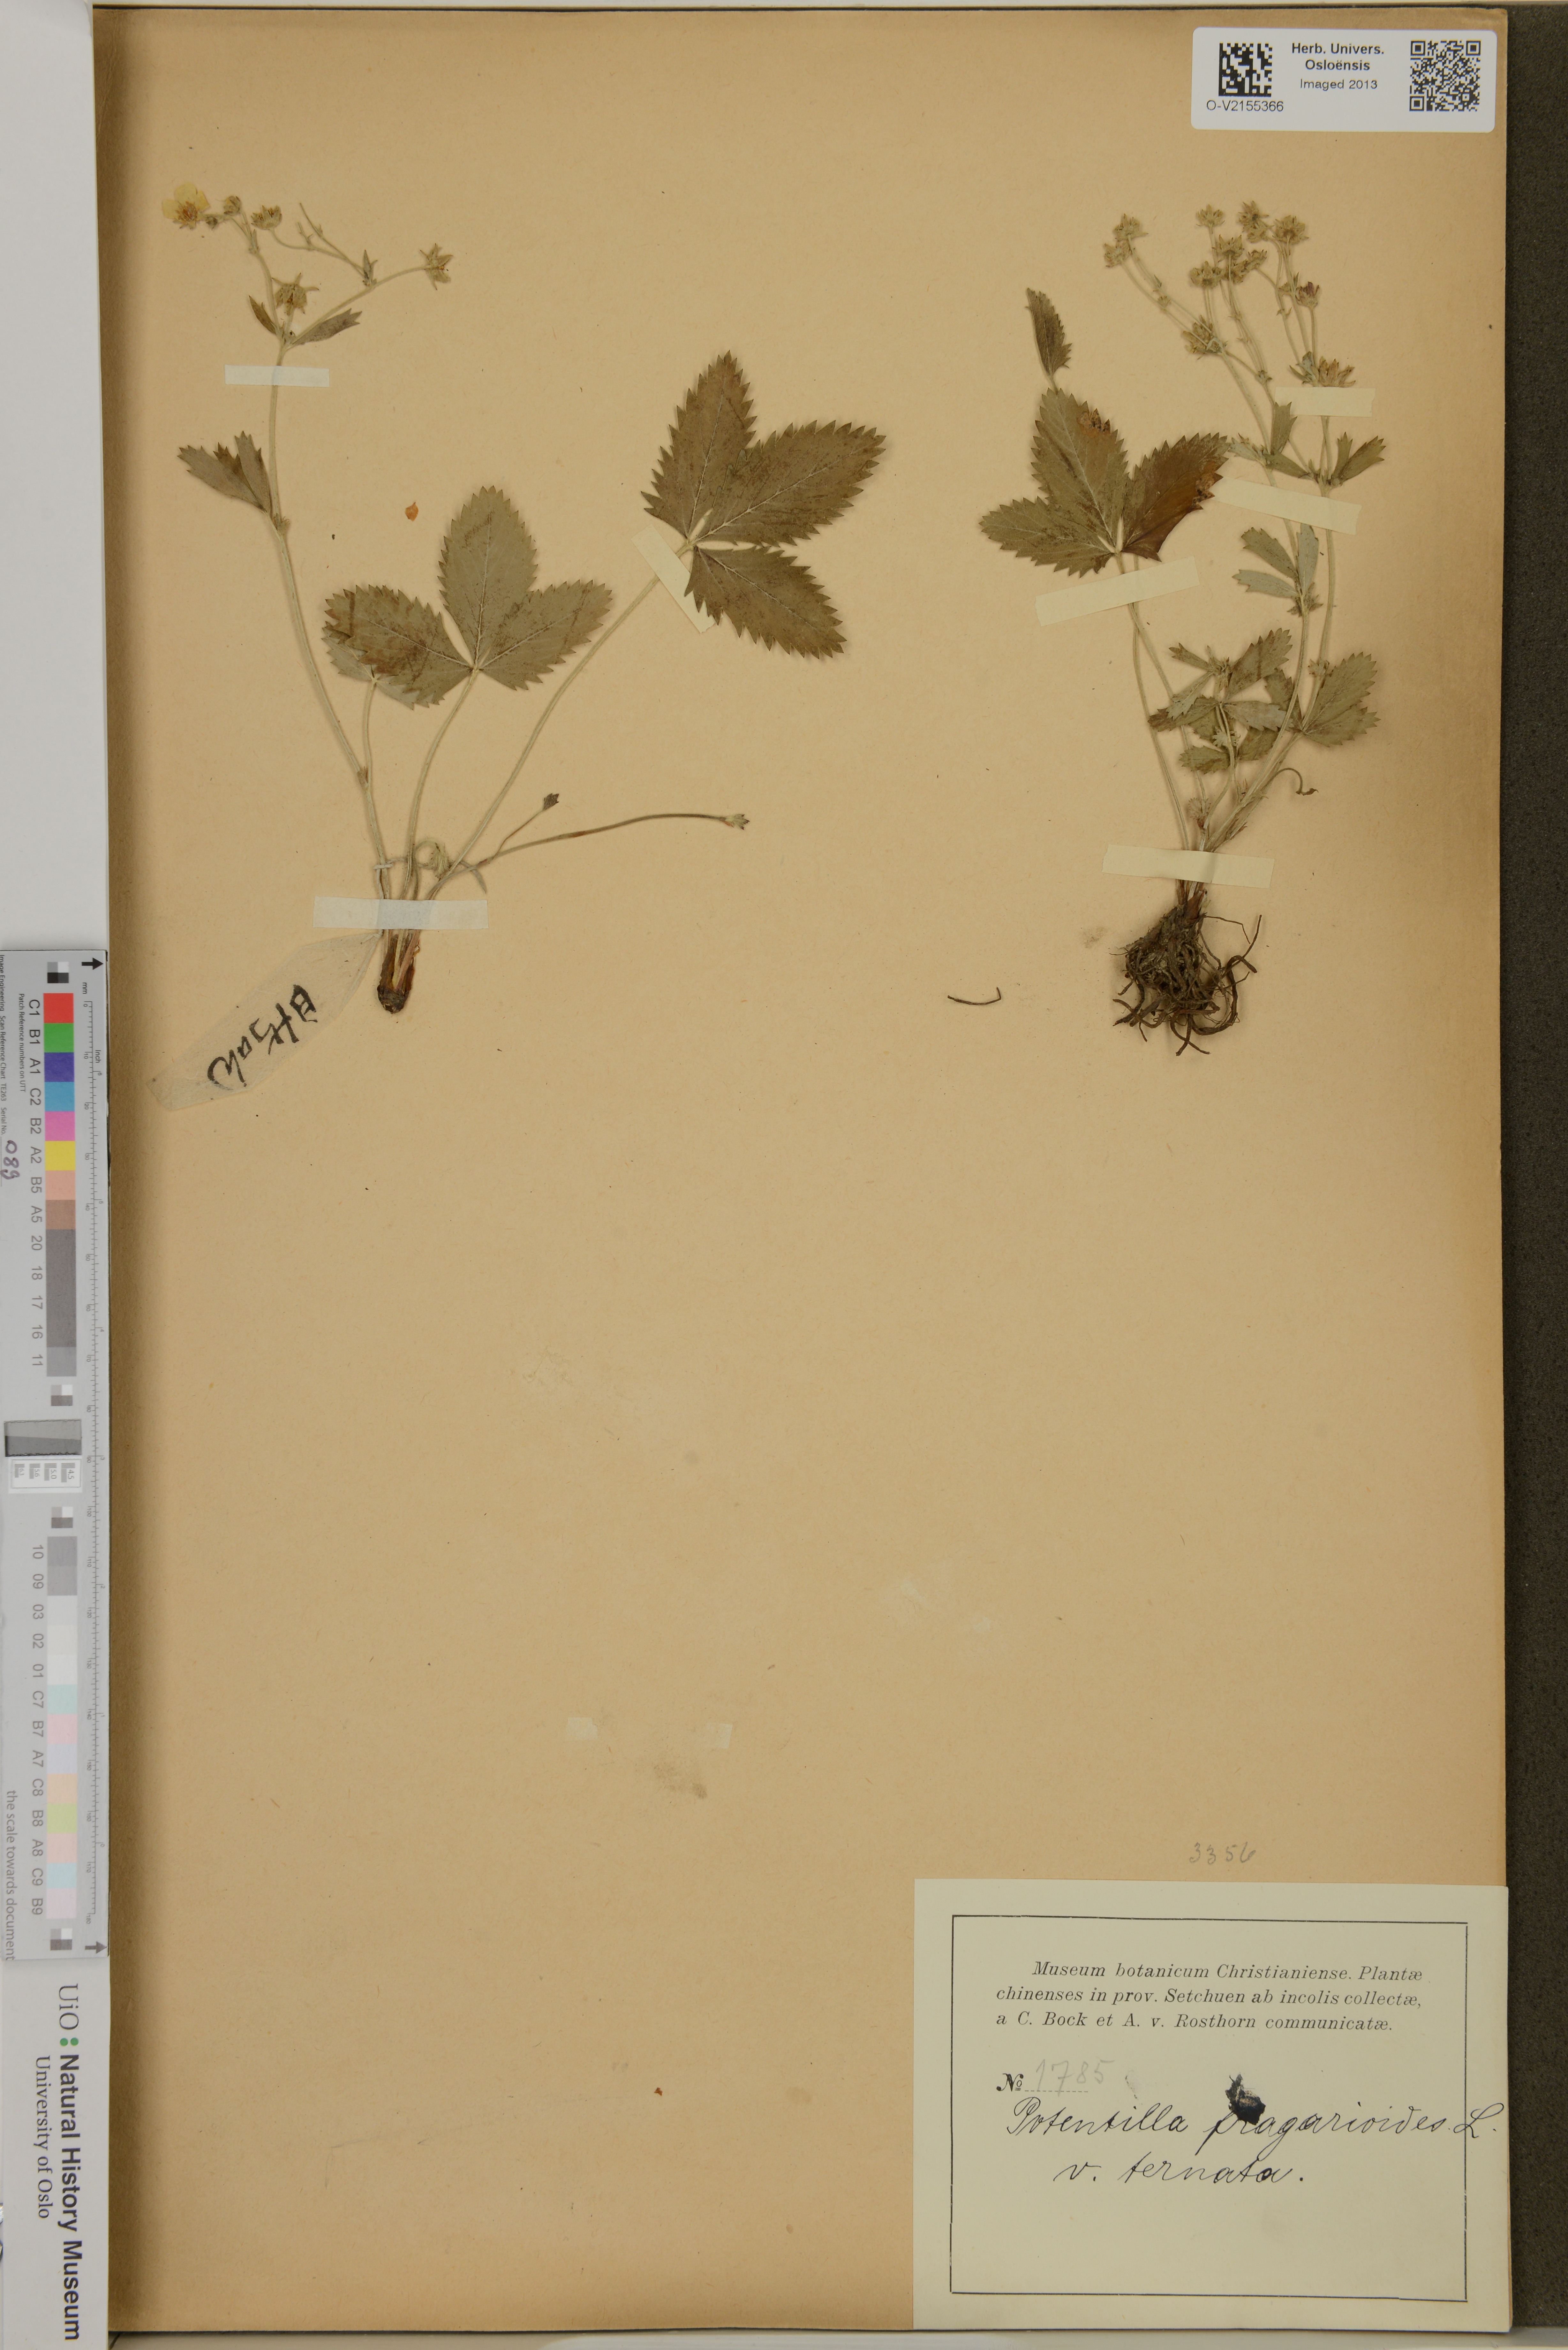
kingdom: Plantae
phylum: Tracheophyta
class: Magnoliopsida
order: Rosales
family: Rosaceae
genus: Potentilla
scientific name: Potentilla fragarioides
